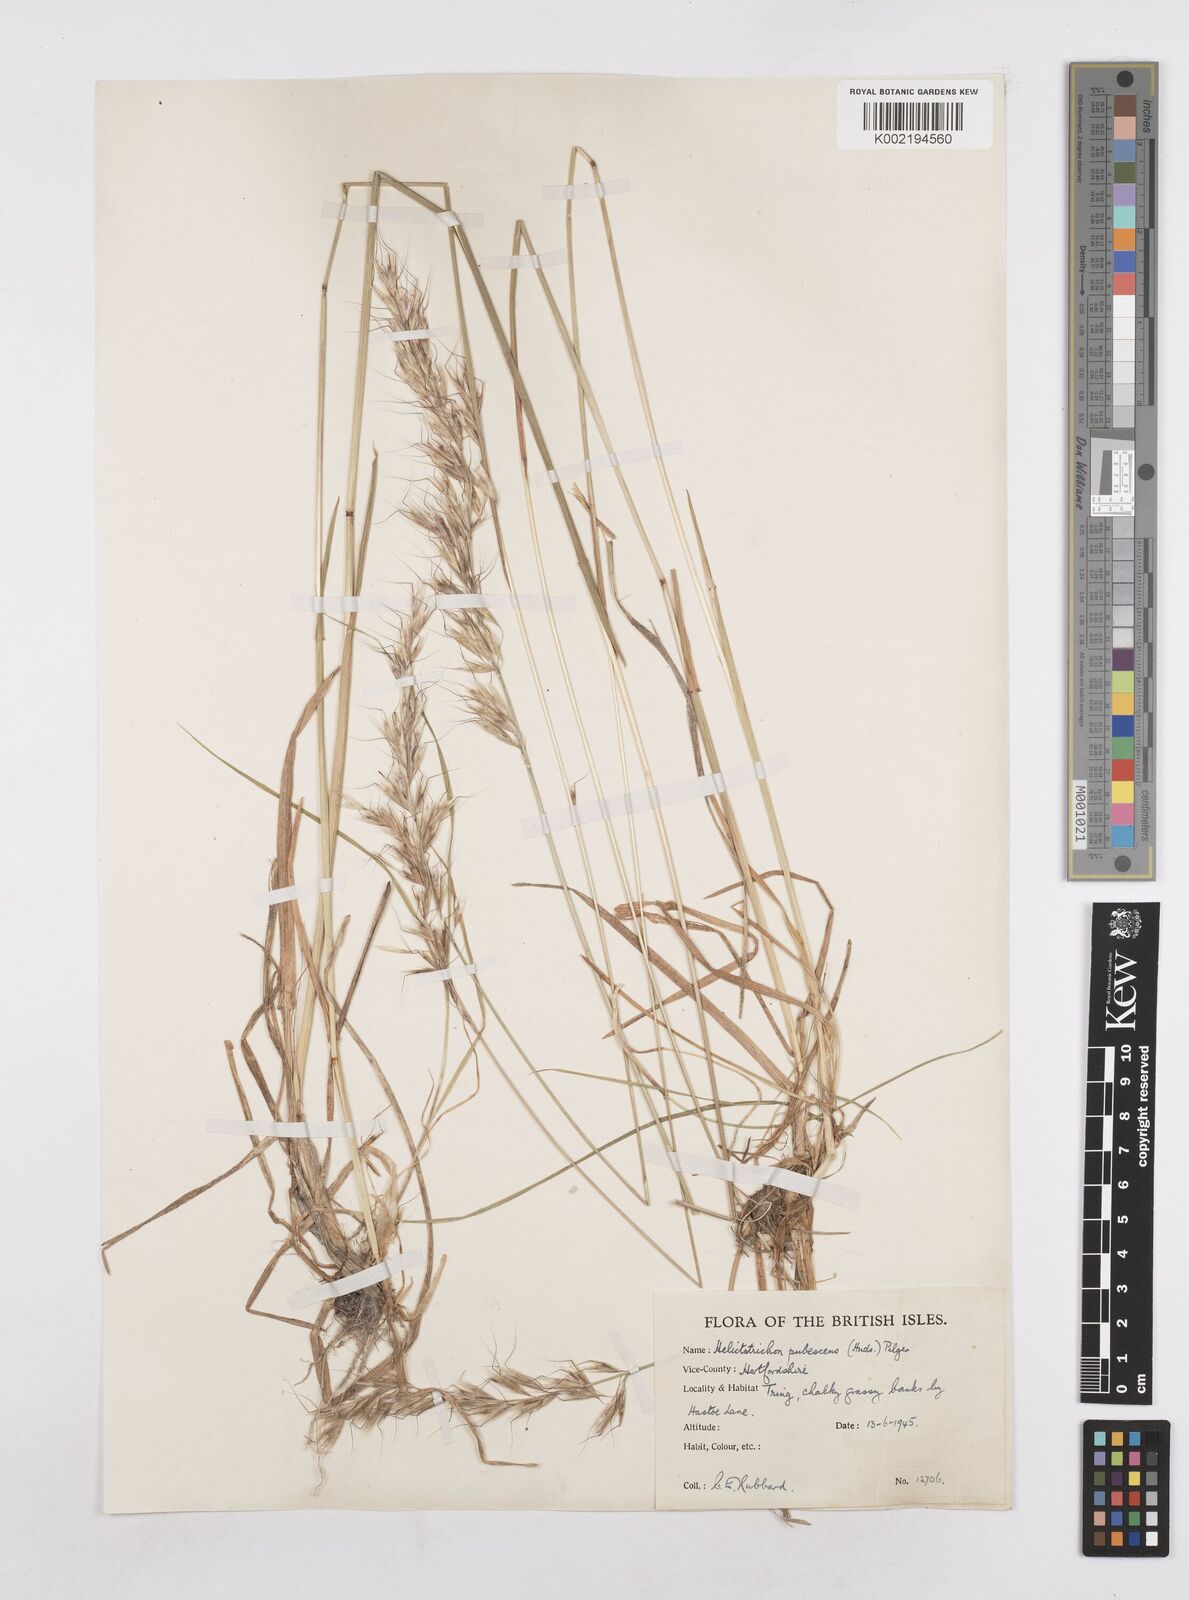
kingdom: Plantae
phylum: Tracheophyta
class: Liliopsida
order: Poales
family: Poaceae
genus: Avenula
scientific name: Avenula pubescens
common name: Downy alpine oatgrass
